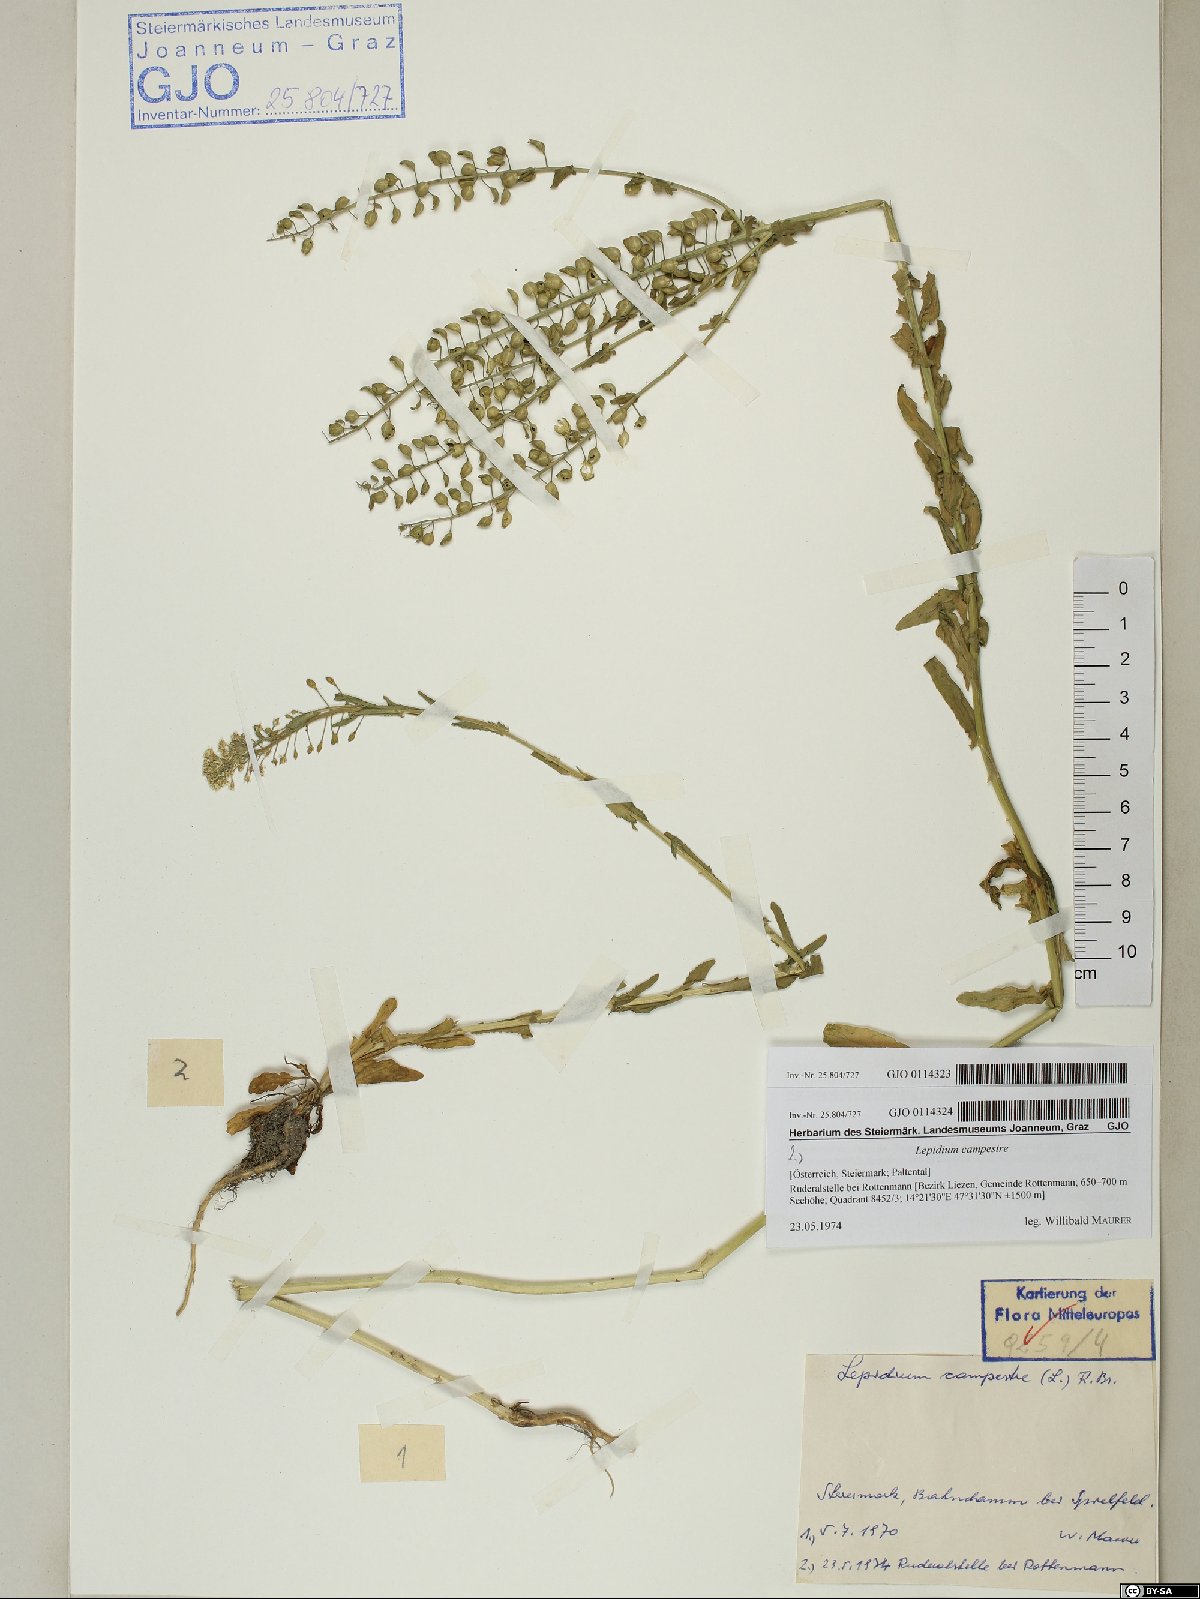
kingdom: Plantae
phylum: Tracheophyta
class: Magnoliopsida
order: Brassicales
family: Brassicaceae
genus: Lepidium
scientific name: Lepidium campestre
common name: Field pepperwort
